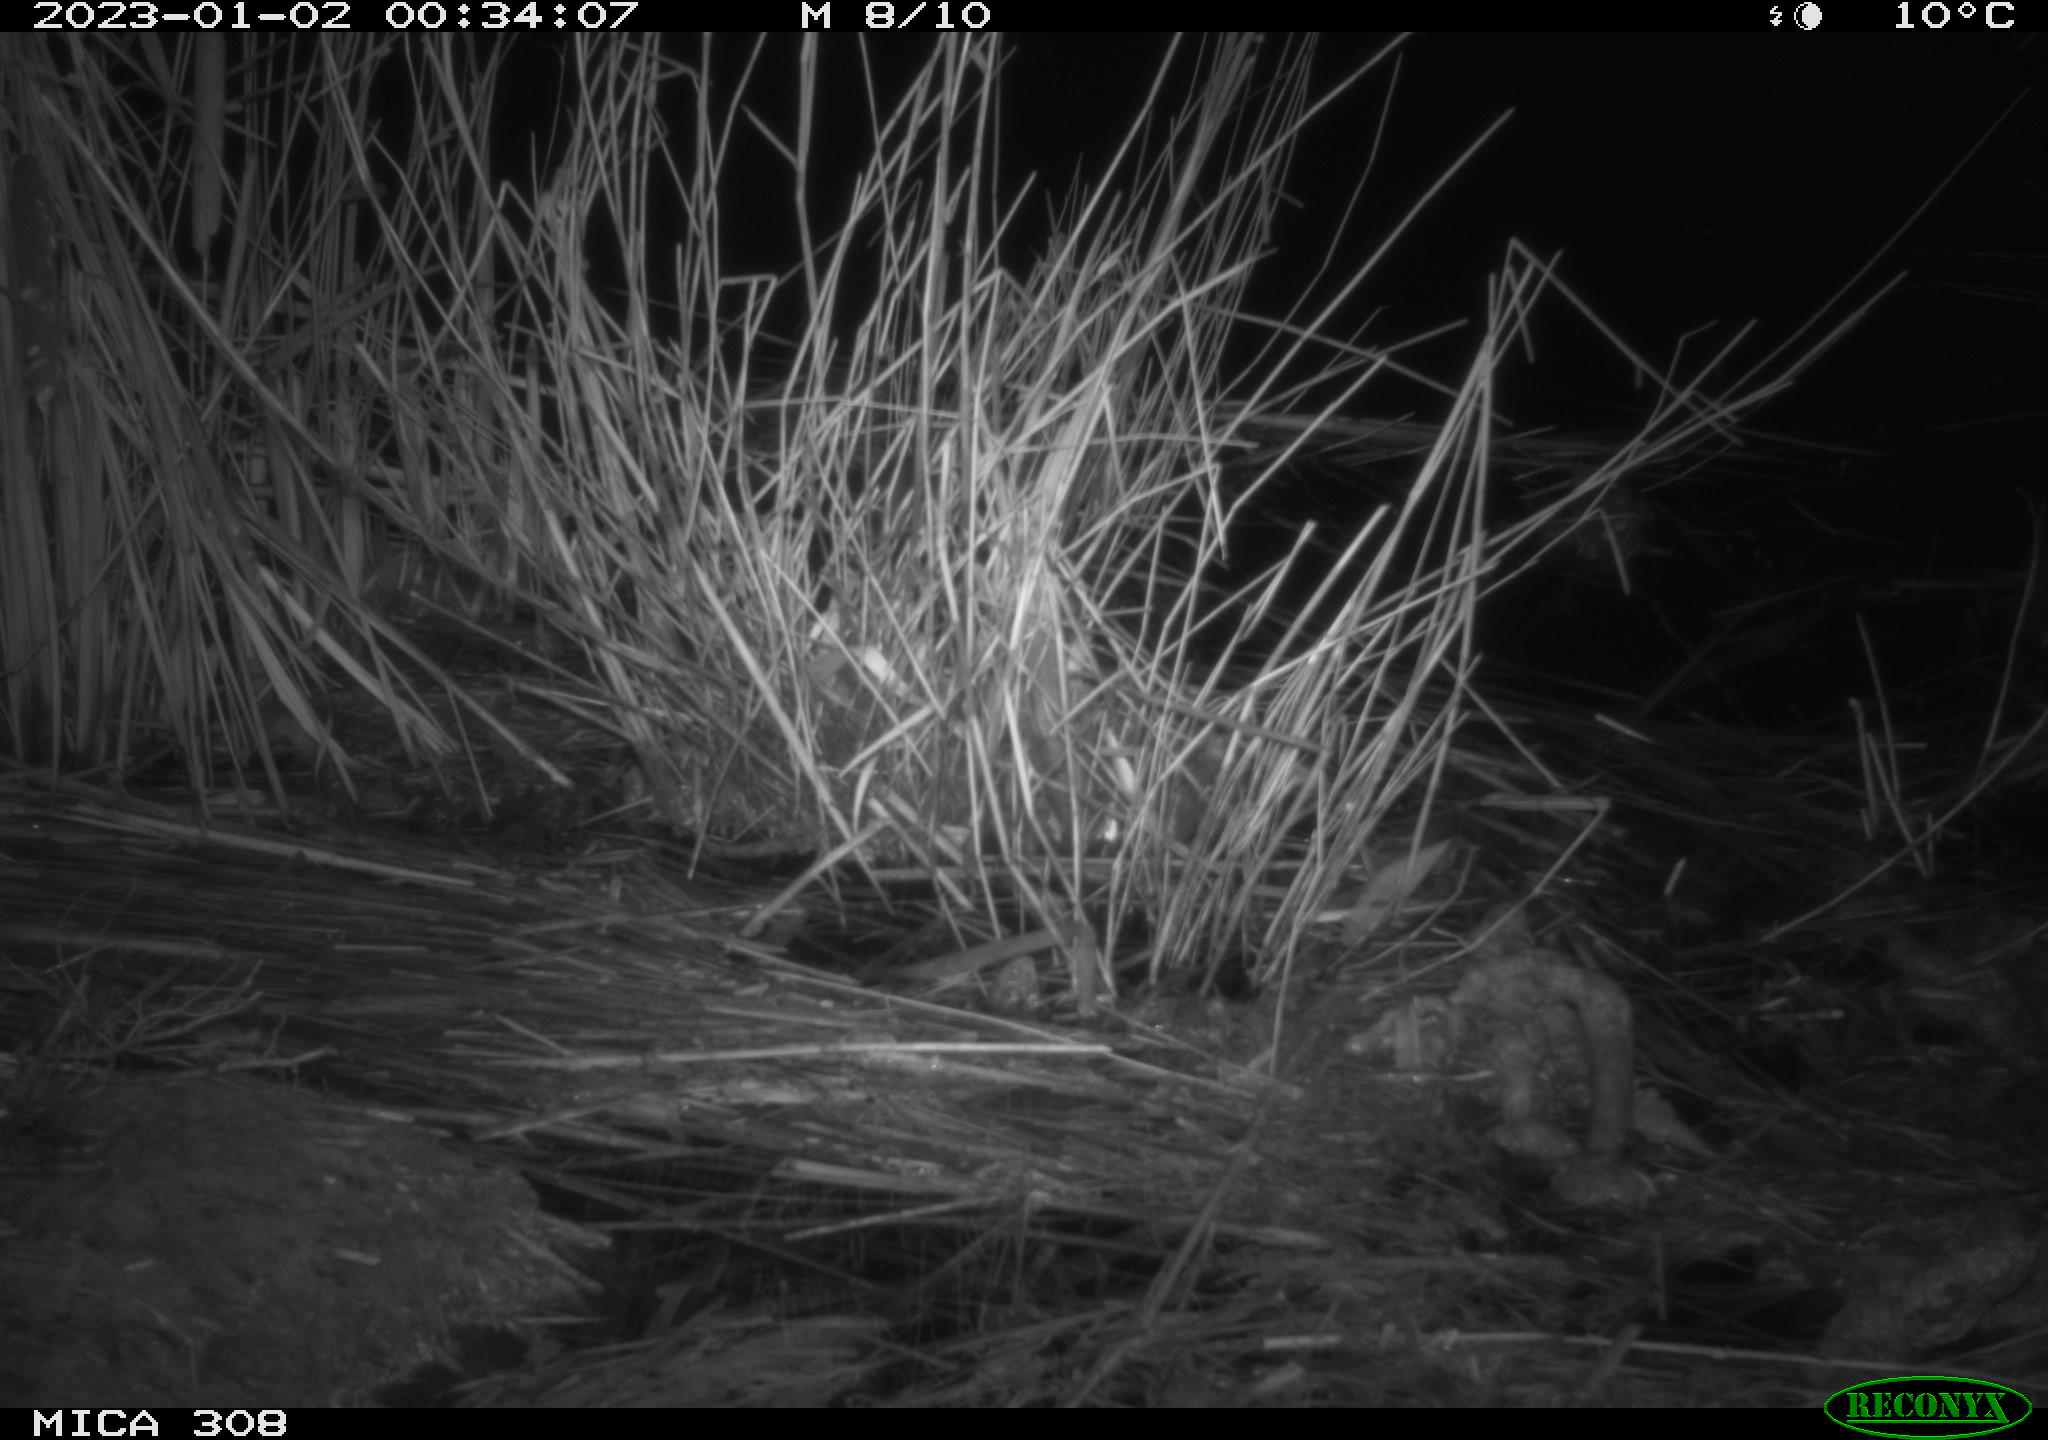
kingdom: Animalia
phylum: Chordata
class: Mammalia
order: Rodentia
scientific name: Rodentia
